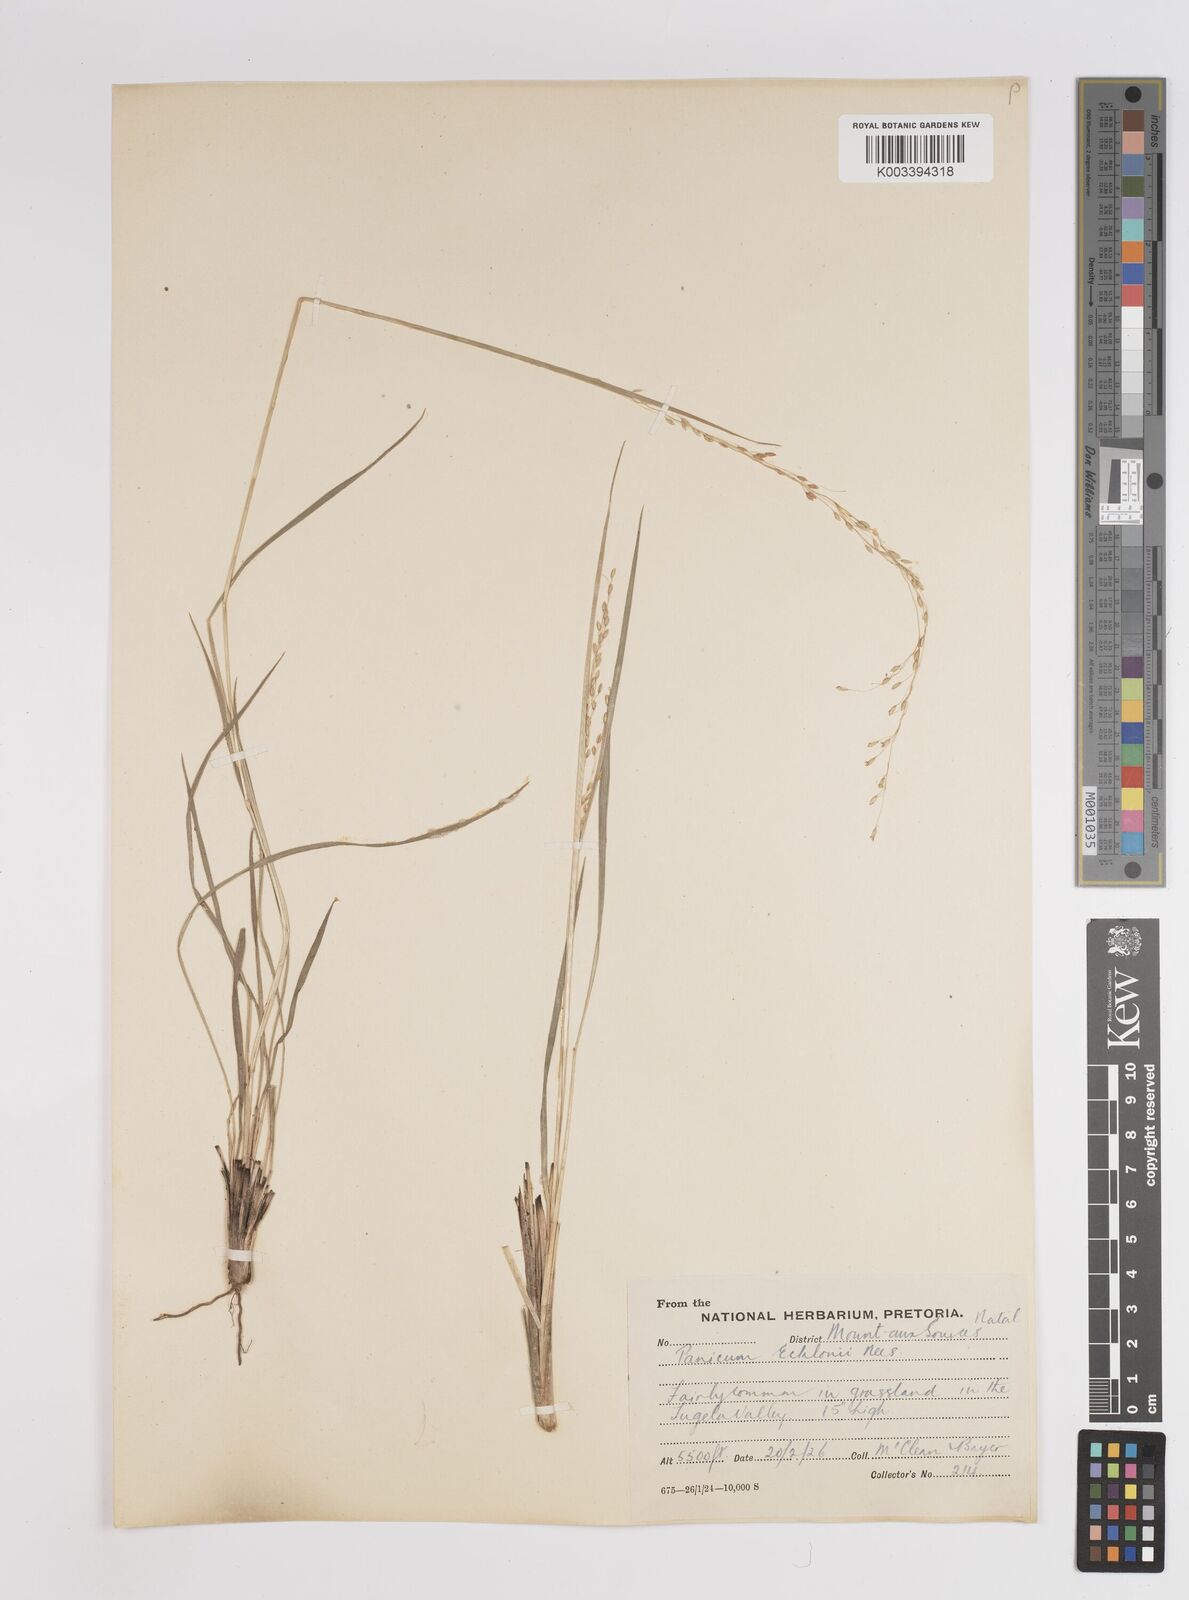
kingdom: Plantae
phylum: Tracheophyta
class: Liliopsida
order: Poales
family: Poaceae
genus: Adenochloa
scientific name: Adenochloa ecklonii
